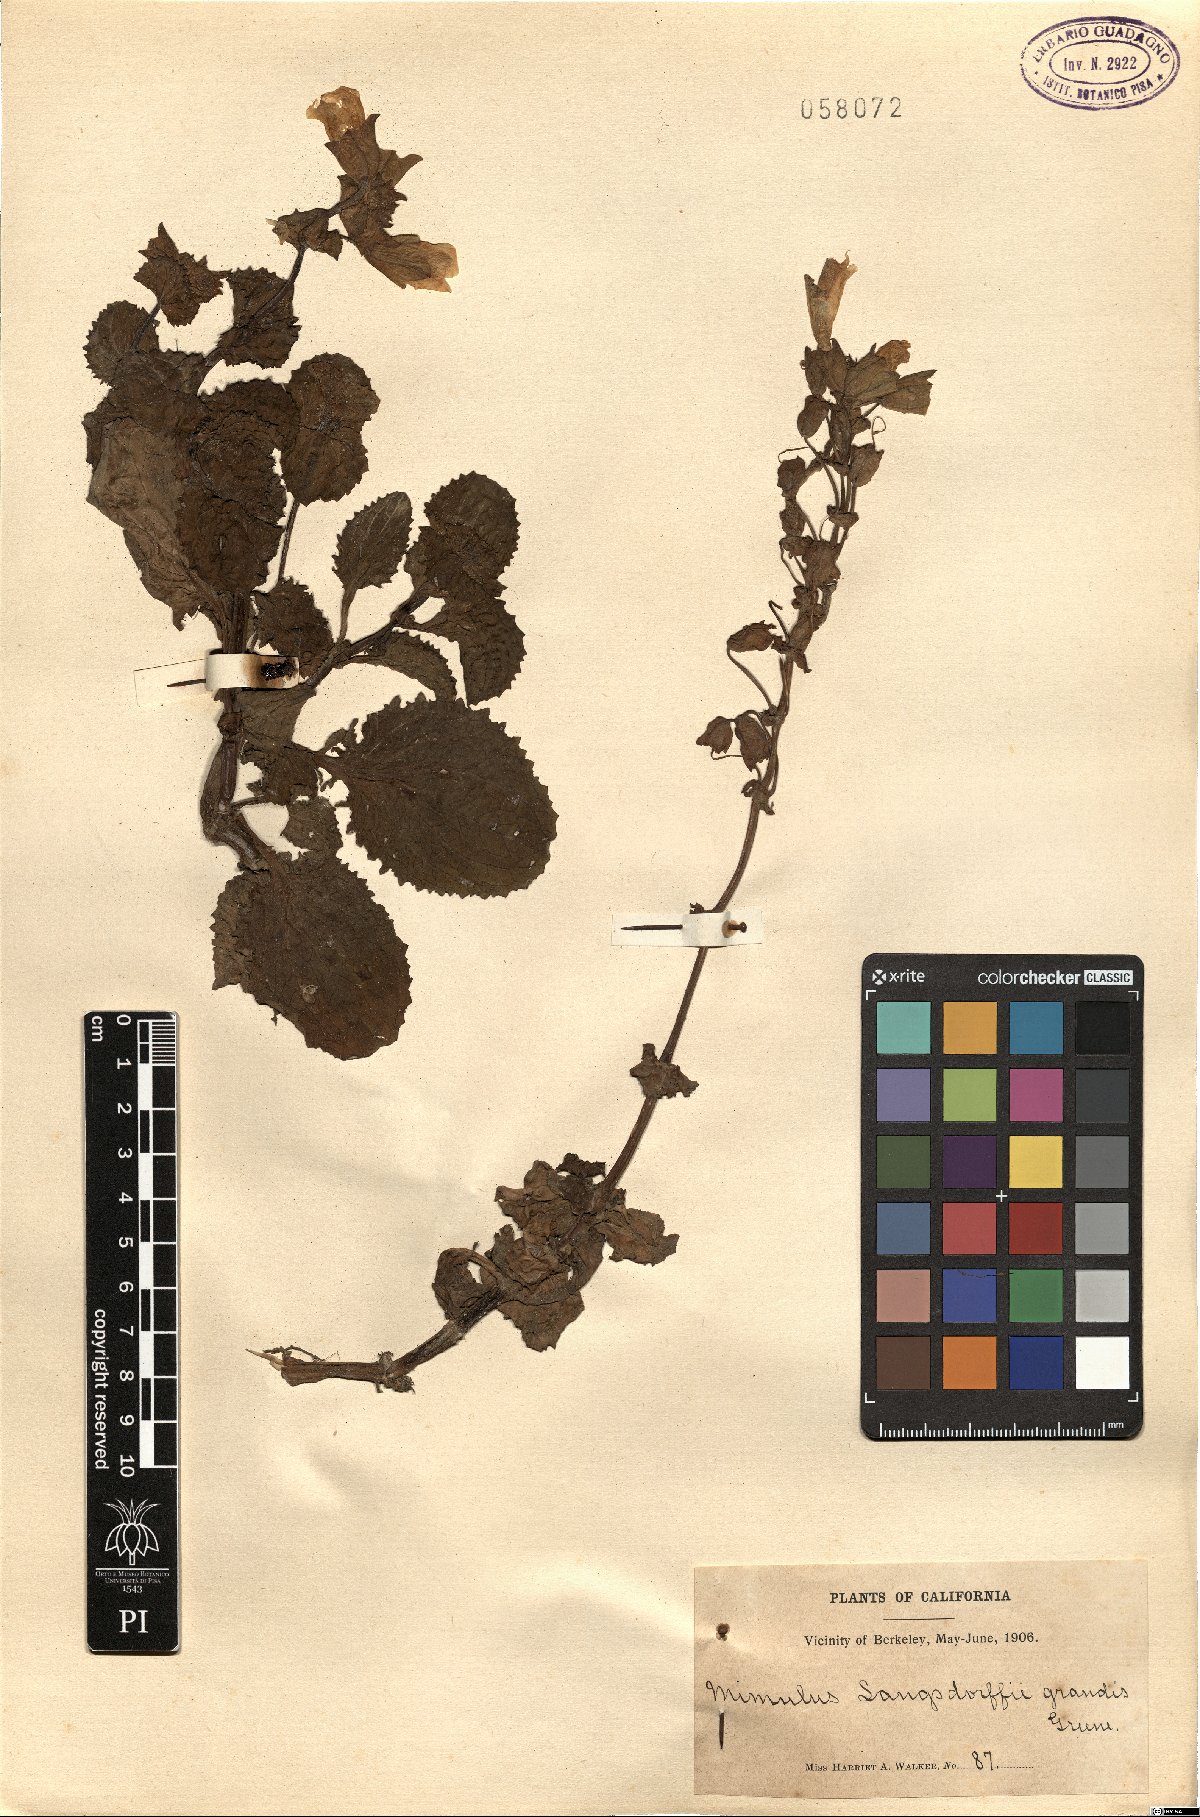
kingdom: Plantae
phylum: Tracheophyta
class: Magnoliopsida
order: Lamiales
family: Phrymaceae
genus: Erythranthe
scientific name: Erythranthe guttata
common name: Monkeyflower
